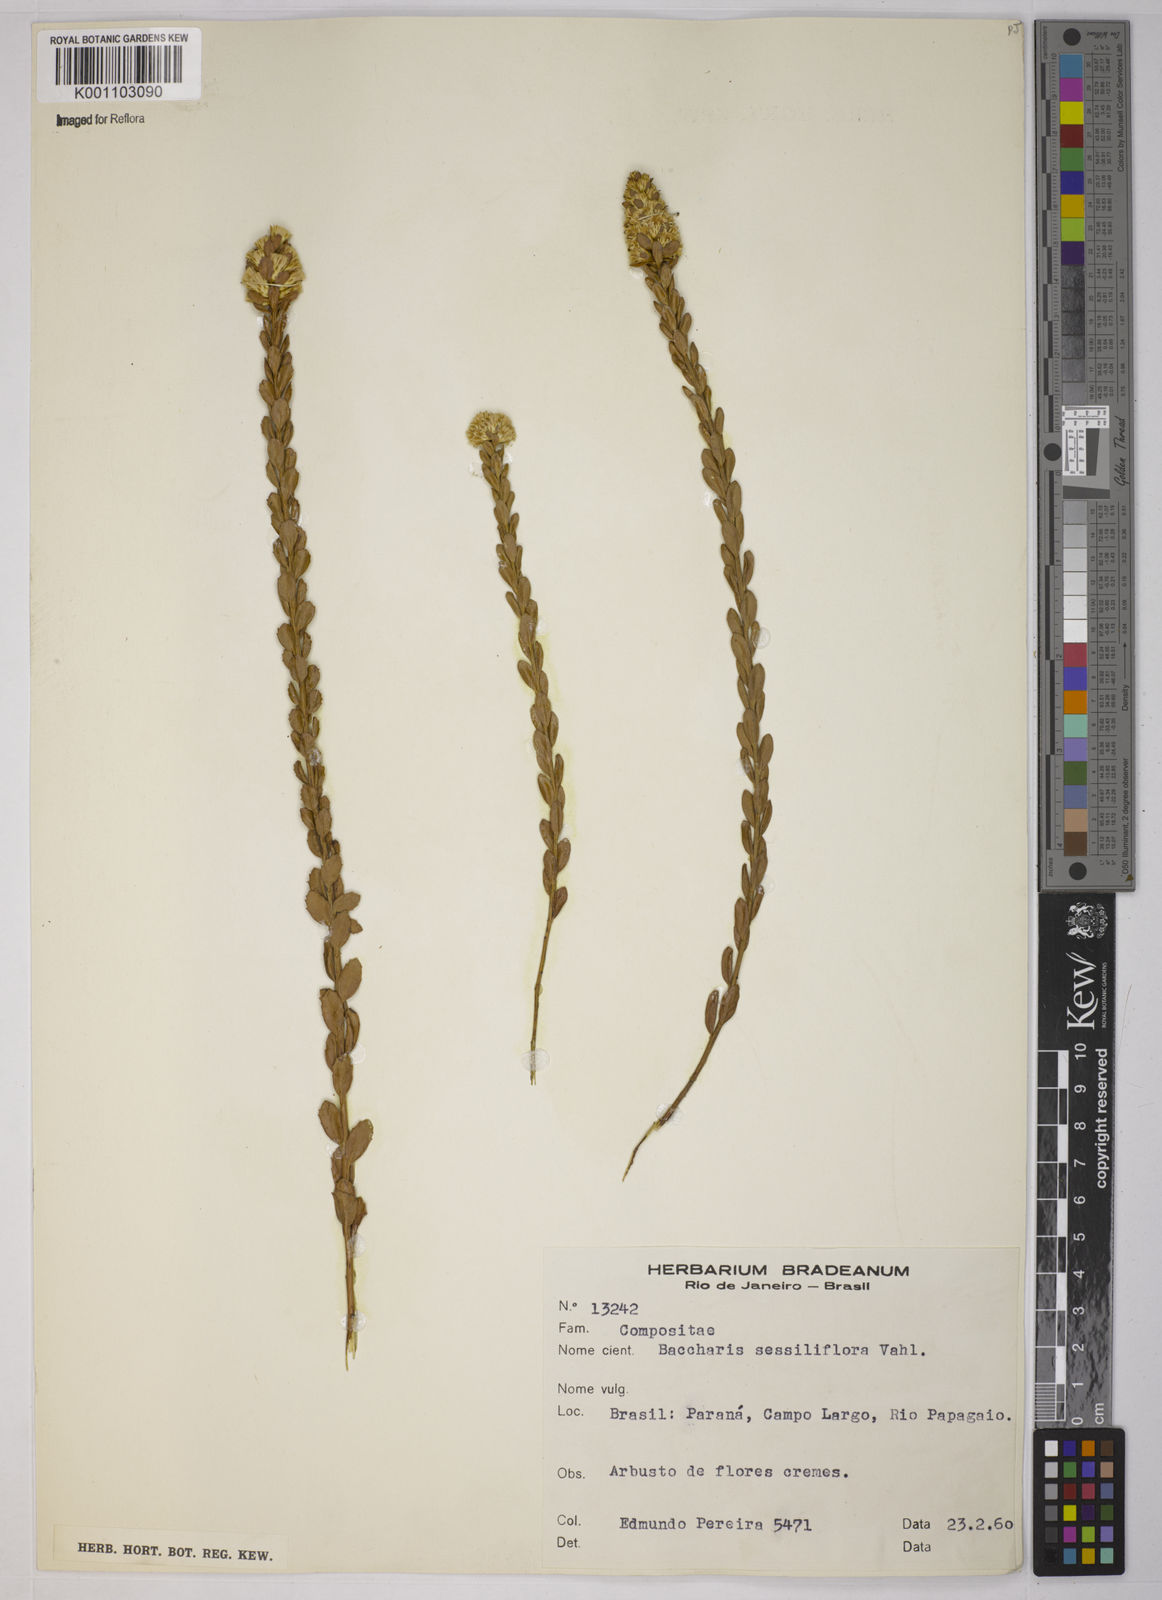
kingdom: Plantae
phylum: Tracheophyta
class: Magnoliopsida
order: Asterales
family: Asteraceae
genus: Baccharis
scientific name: Baccharis sessiliflora
